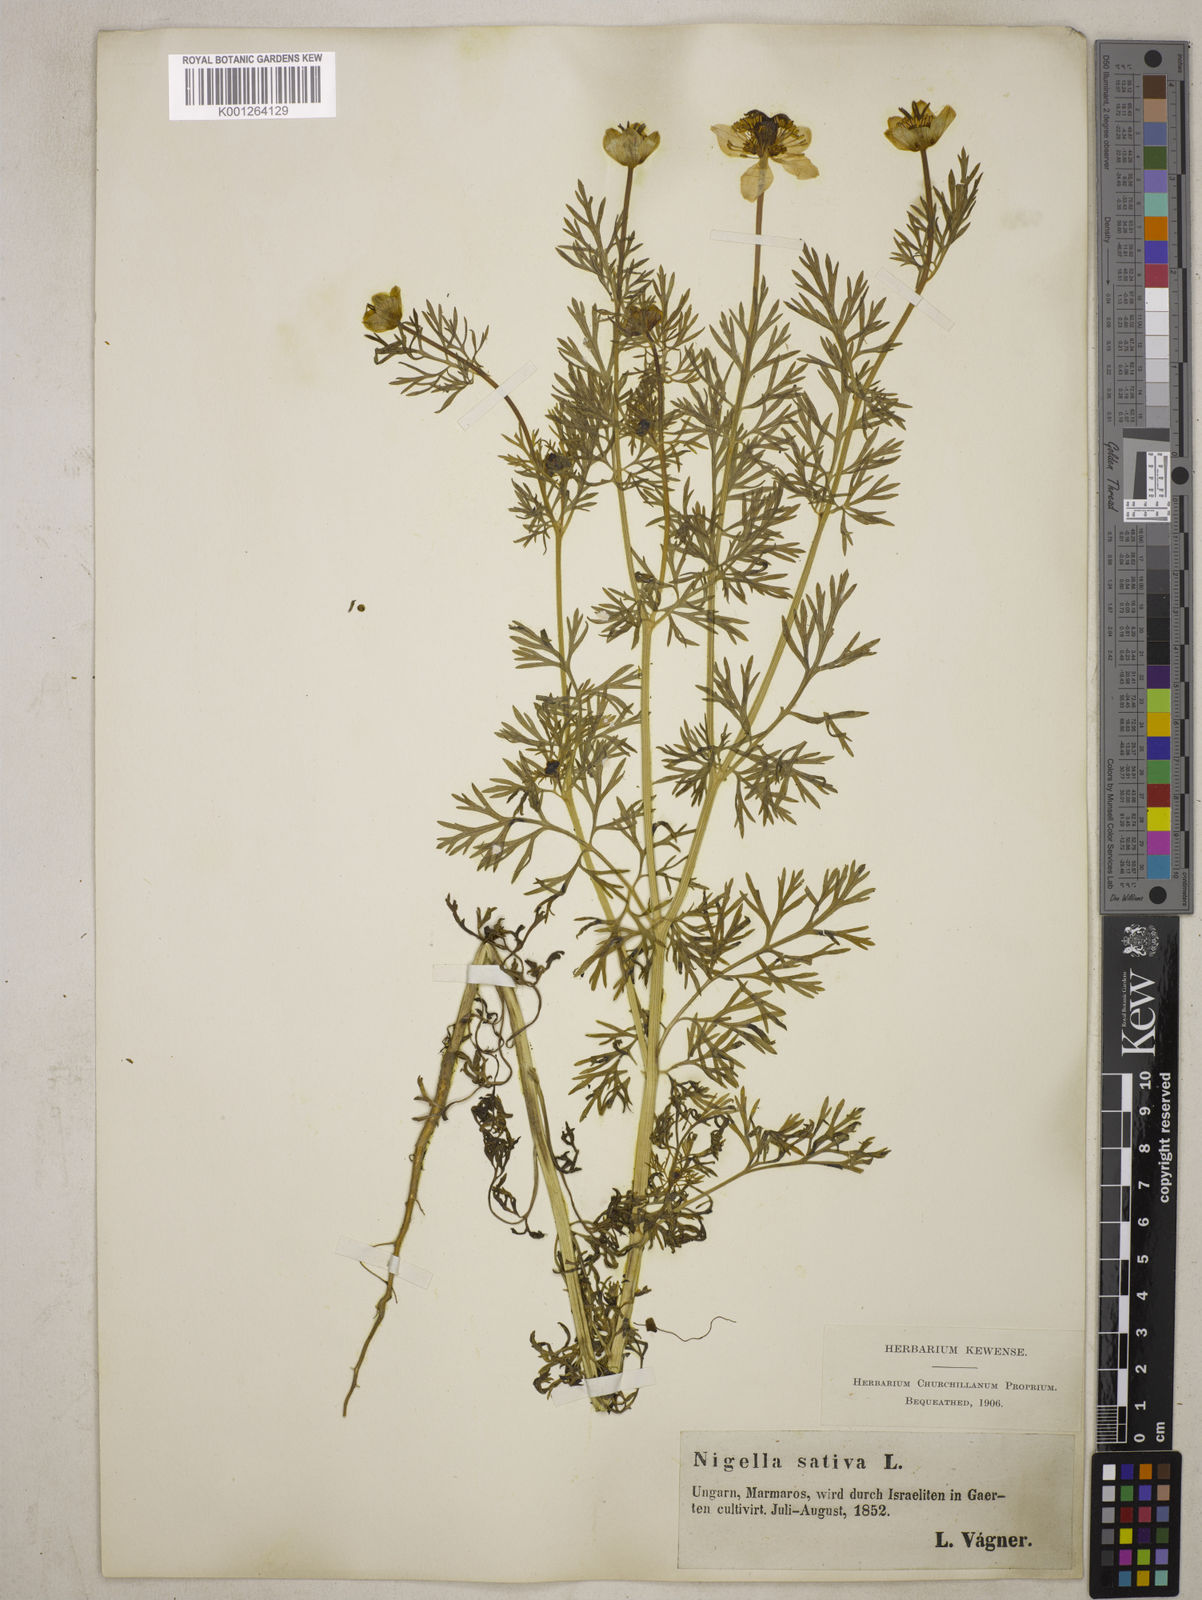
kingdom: Plantae
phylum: Tracheophyta
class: Magnoliopsida
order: Ranunculales
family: Ranunculaceae
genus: Nigella
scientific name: Nigella sativa
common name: Black-cumin
